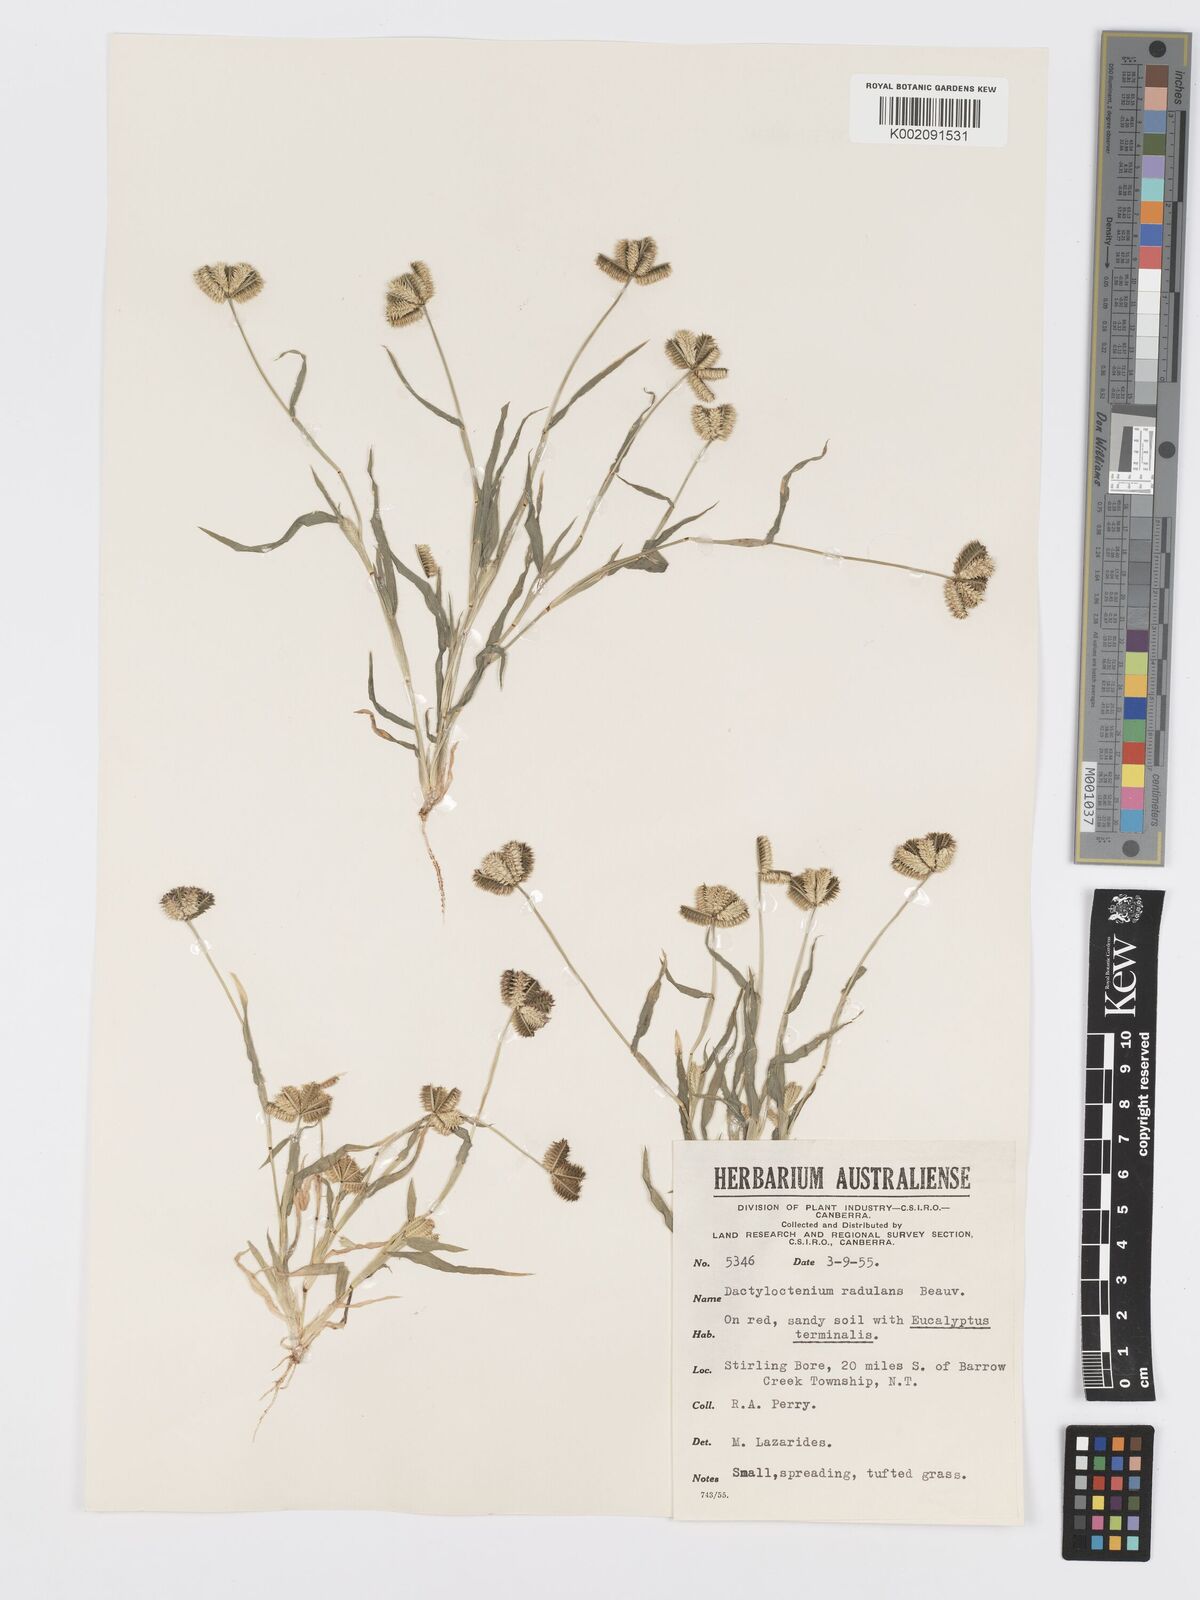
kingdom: Plantae
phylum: Tracheophyta
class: Liliopsida
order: Poales
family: Poaceae
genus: Dactyloctenium
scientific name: Dactyloctenium radulans
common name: Button-grass
